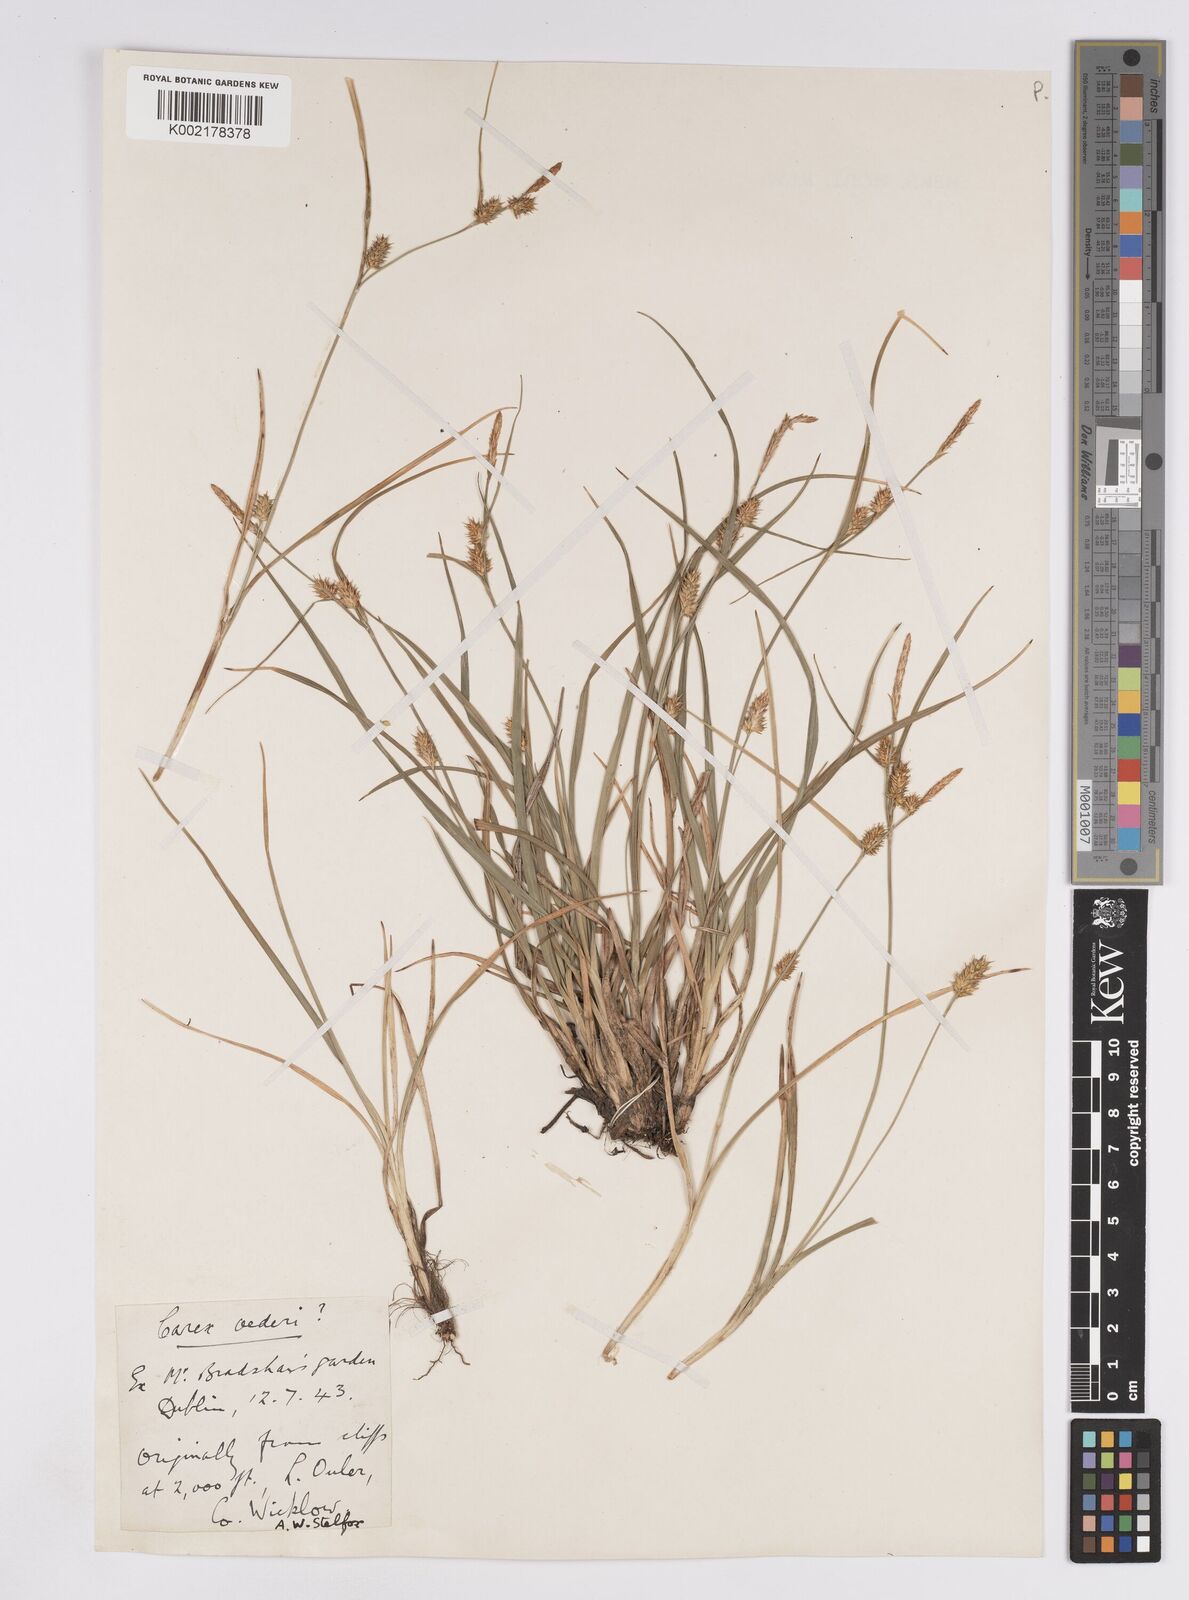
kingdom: Plantae
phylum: Tracheophyta
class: Liliopsida
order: Poales
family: Cyperaceae
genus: Carex
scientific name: Carex demissa
